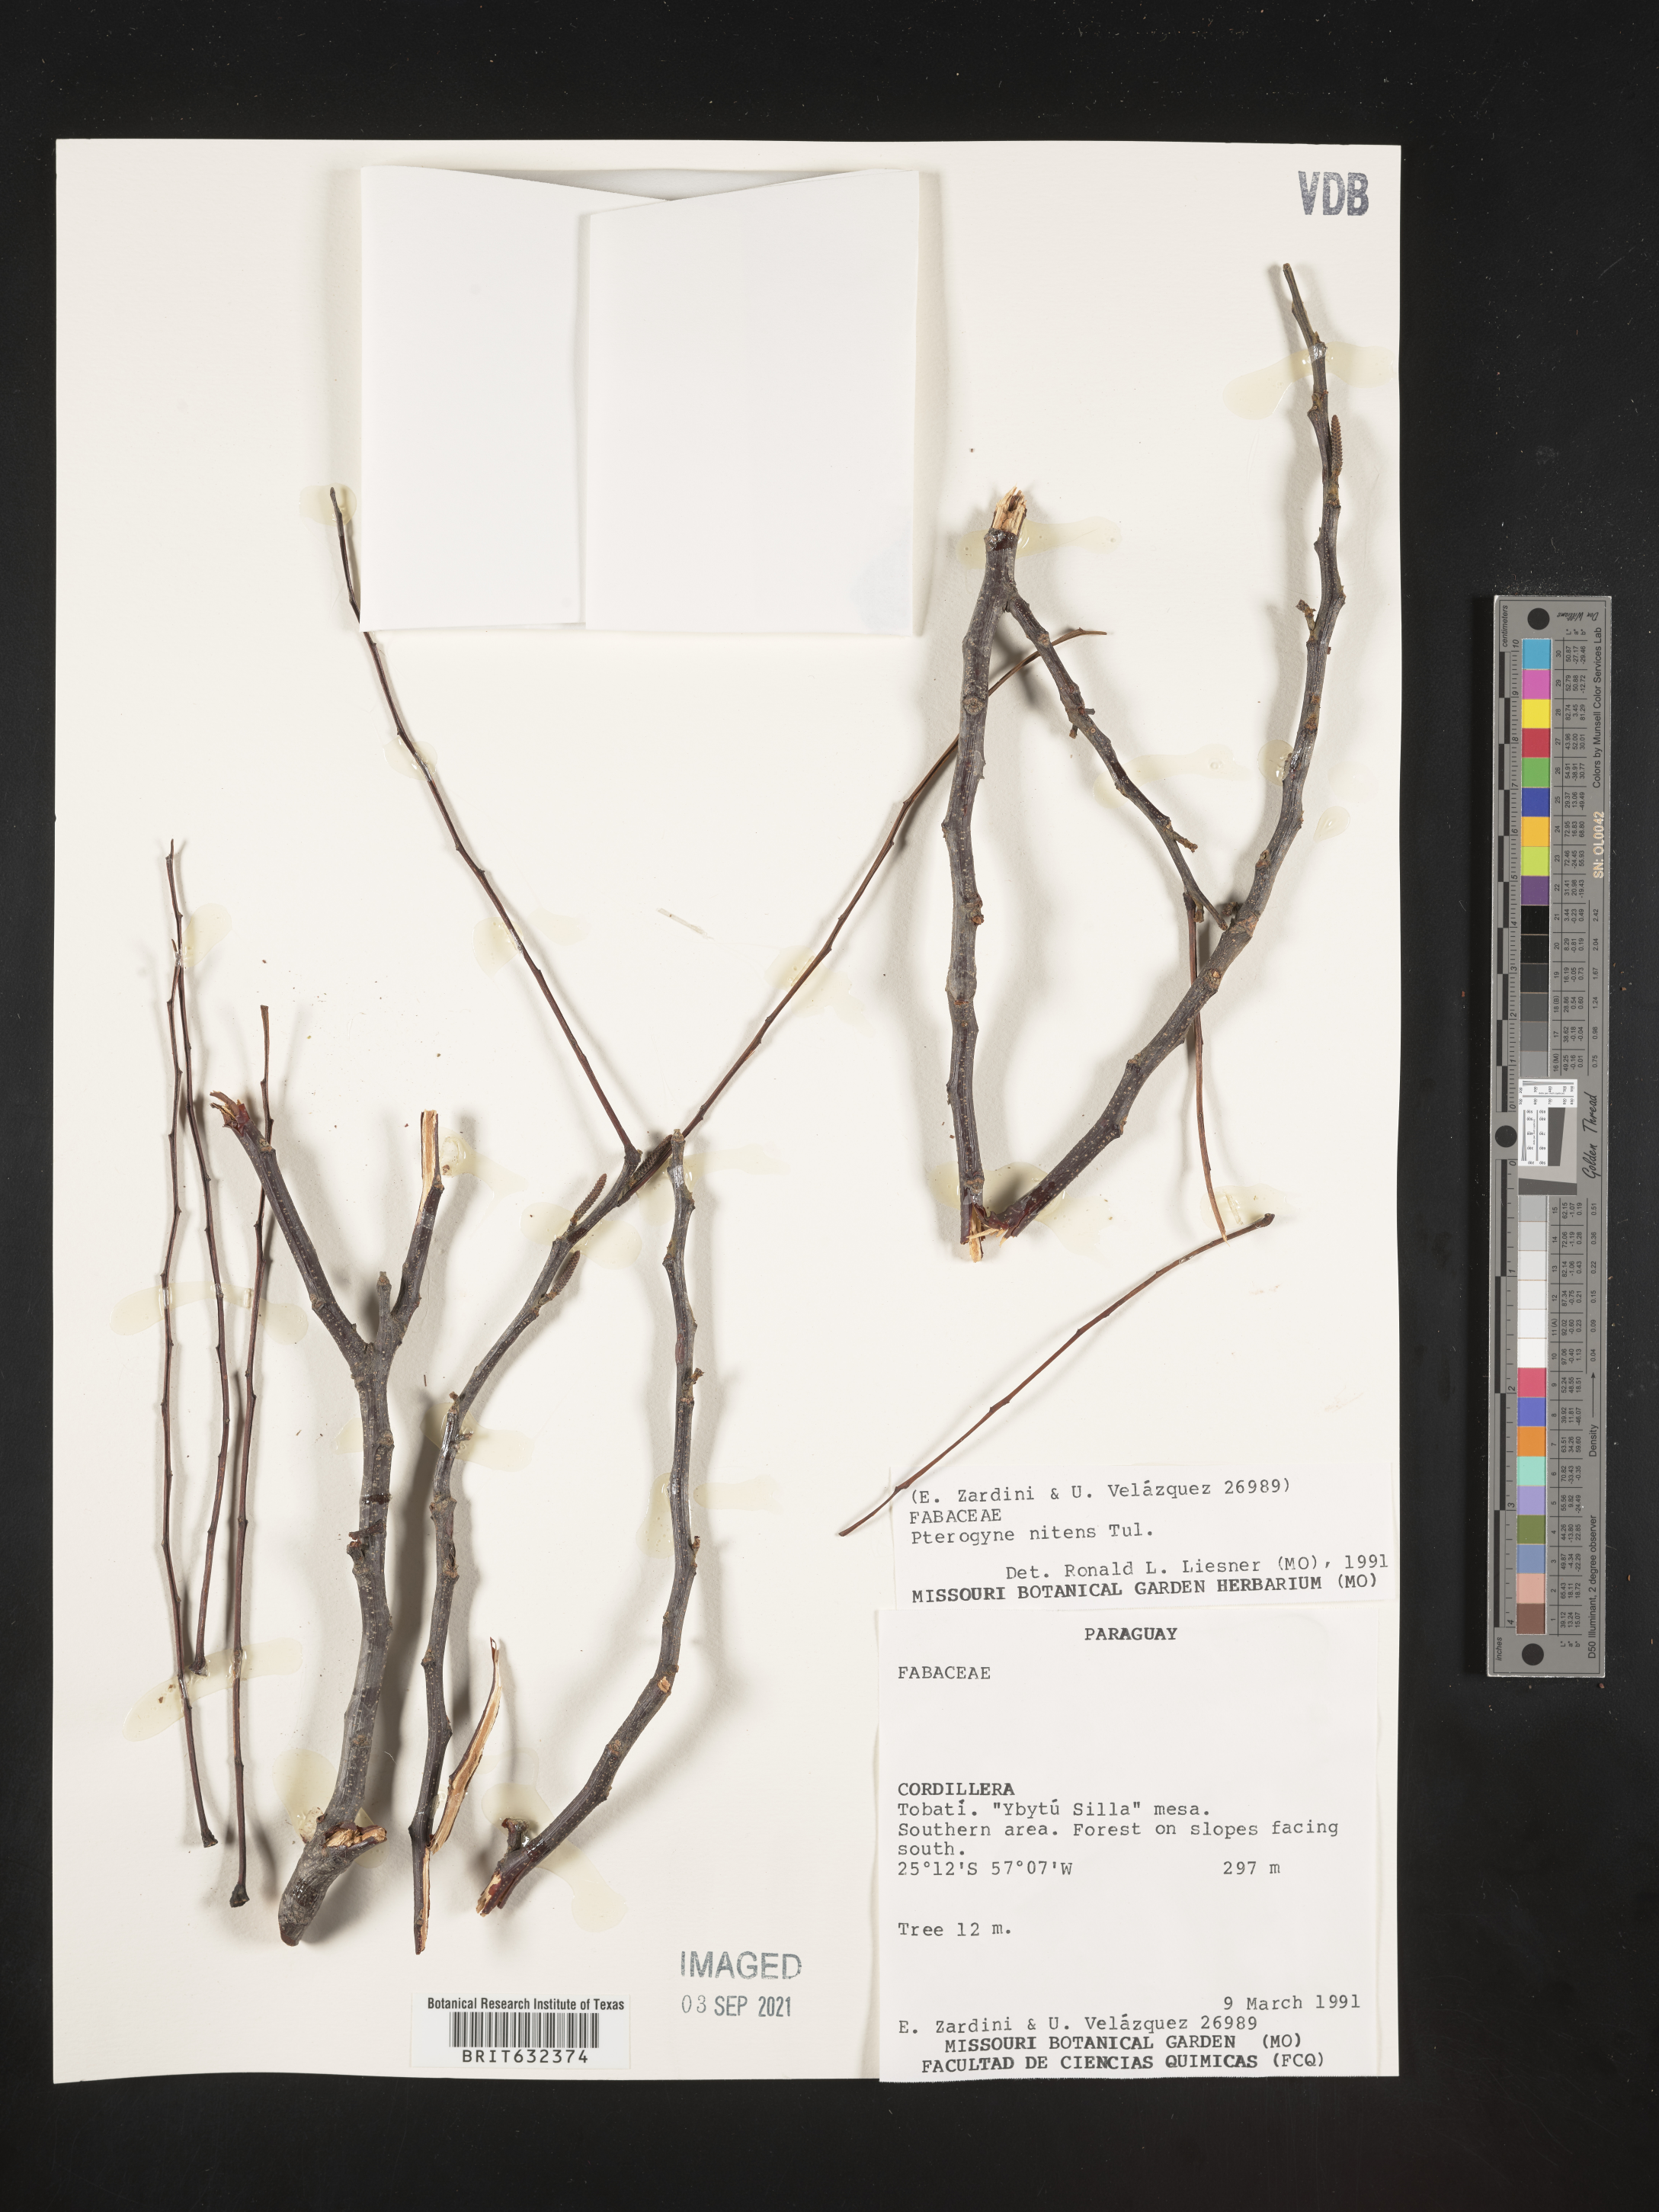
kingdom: Plantae
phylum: Tracheophyta
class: Magnoliopsida
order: Fabales
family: Fabaceae
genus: Pterogyne
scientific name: Pterogyne
